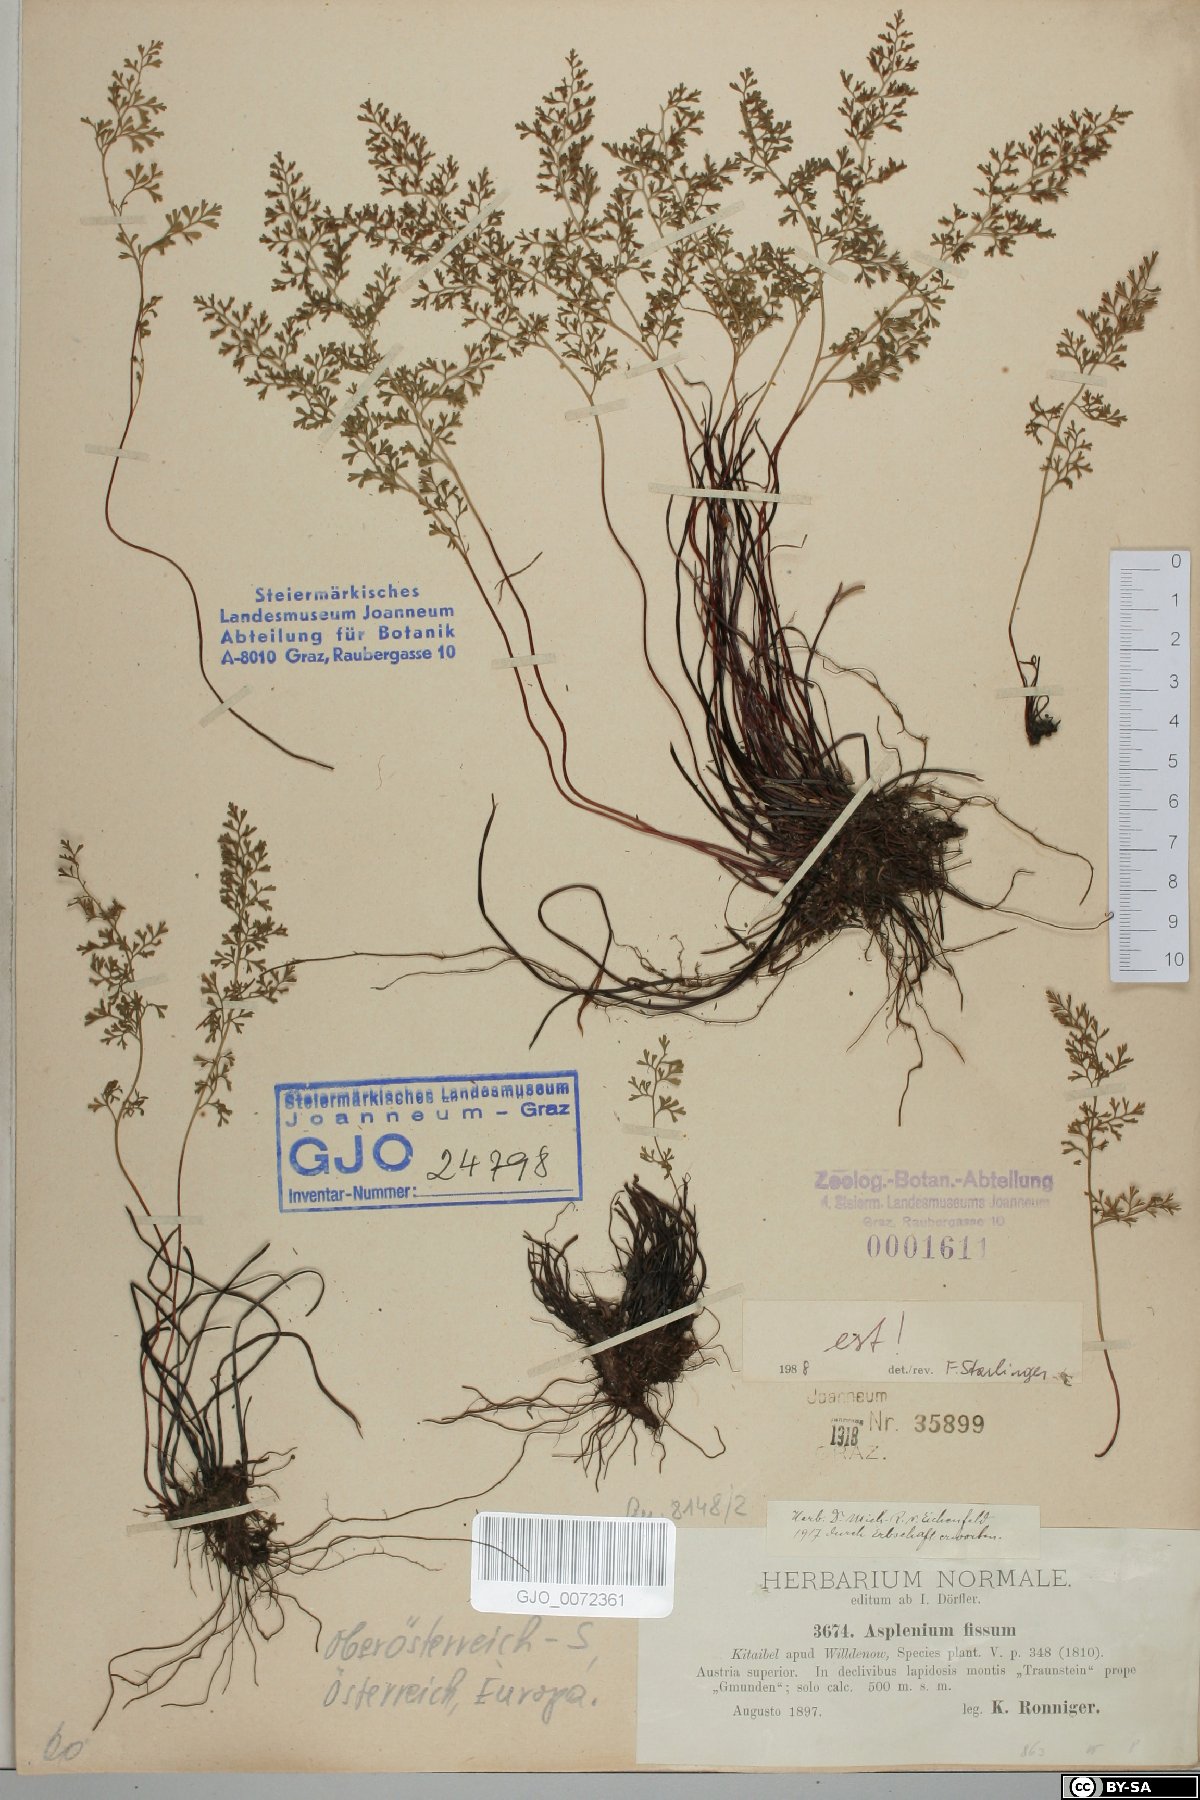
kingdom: Plantae
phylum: Tracheophyta
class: Polypodiopsida
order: Polypodiales
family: Aspleniaceae
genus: Asplenium
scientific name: Asplenium fissum
